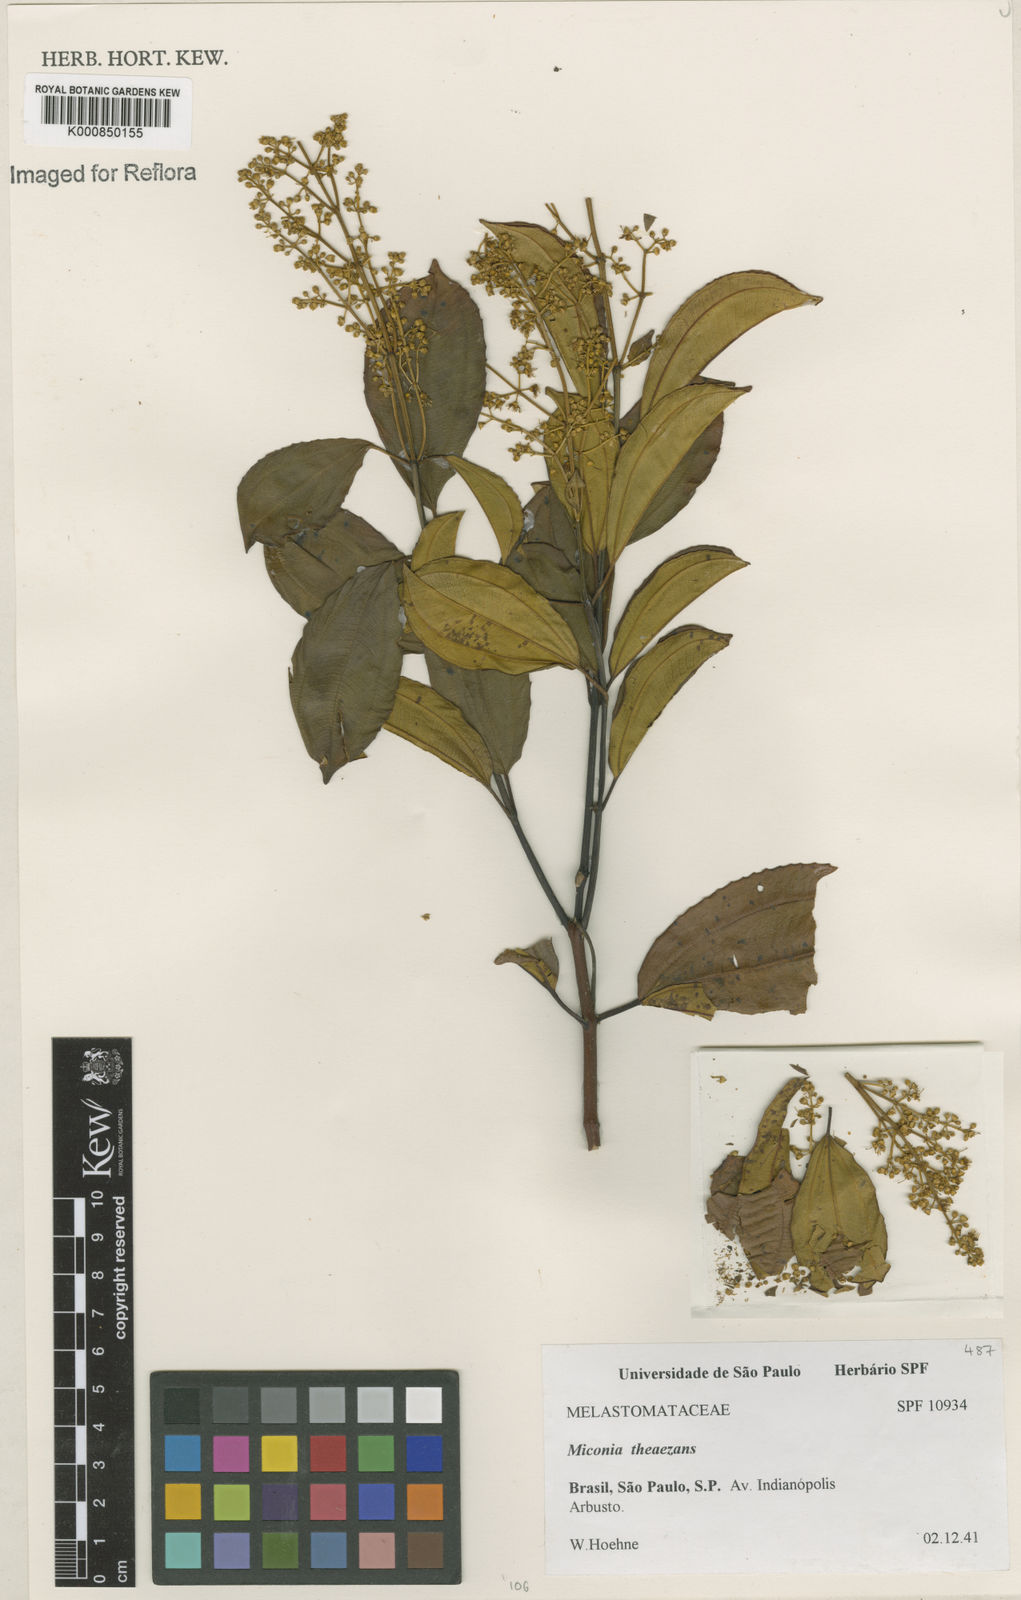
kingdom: Plantae
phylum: Tracheophyta
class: Magnoliopsida
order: Myrtales
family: Melastomataceae
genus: Miconia
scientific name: Miconia
